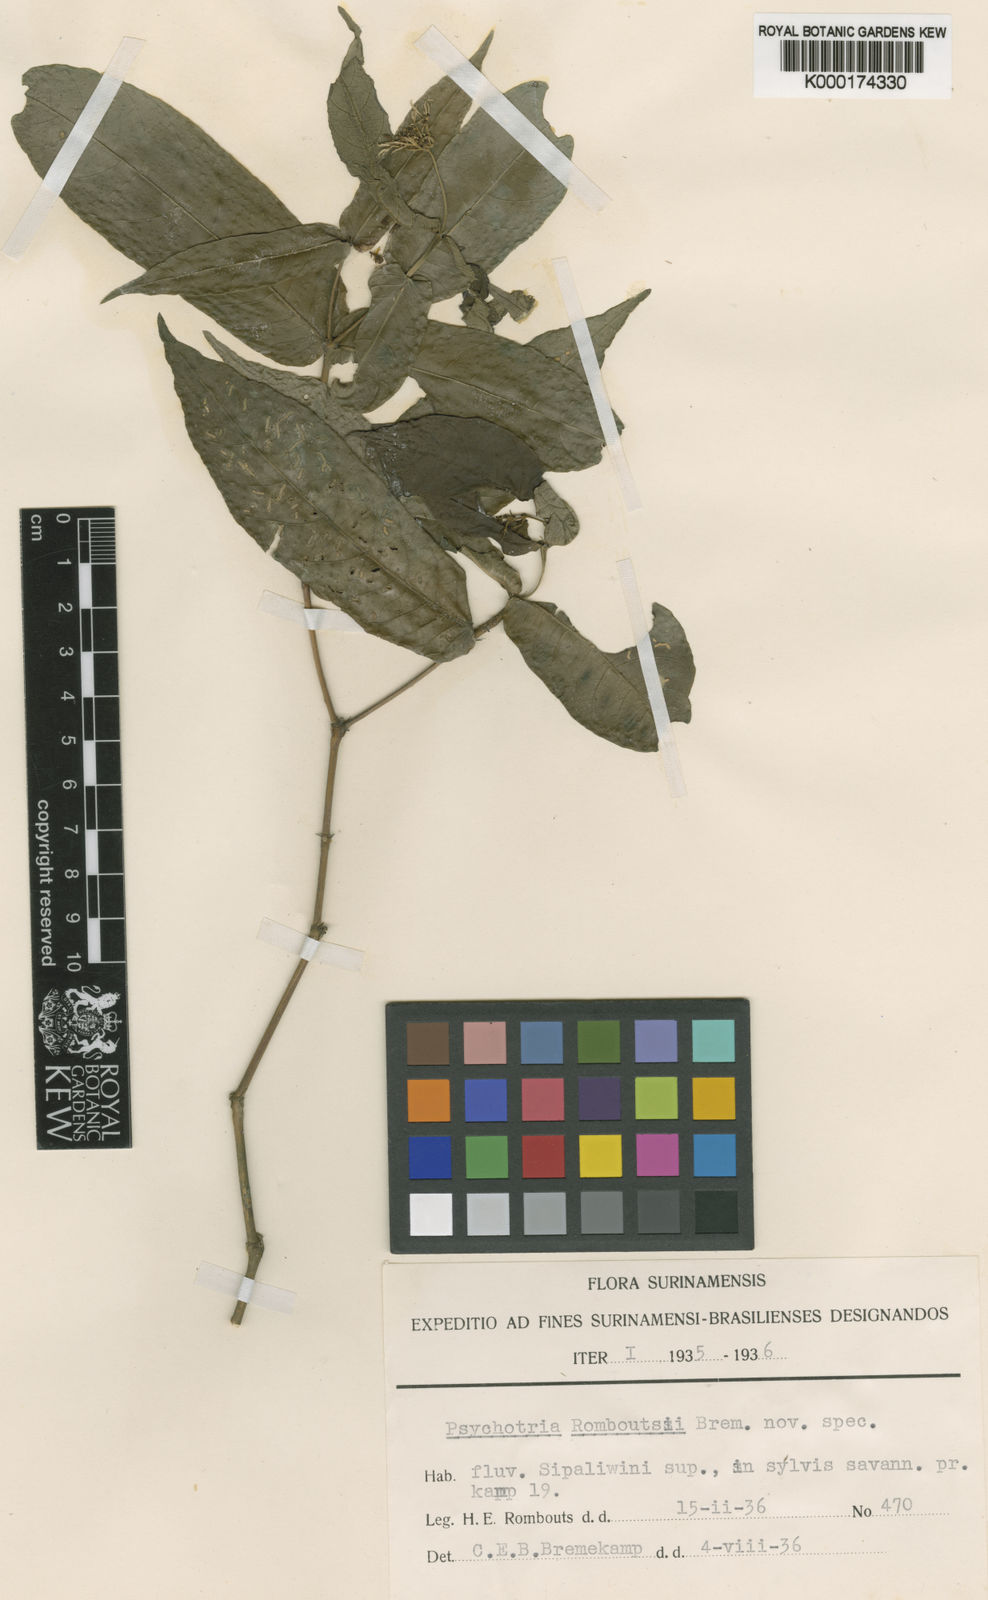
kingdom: Plantae
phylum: Tracheophyta
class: Magnoliopsida
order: Gentianales
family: Rubiaceae
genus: Psychotria
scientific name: Psychotria
